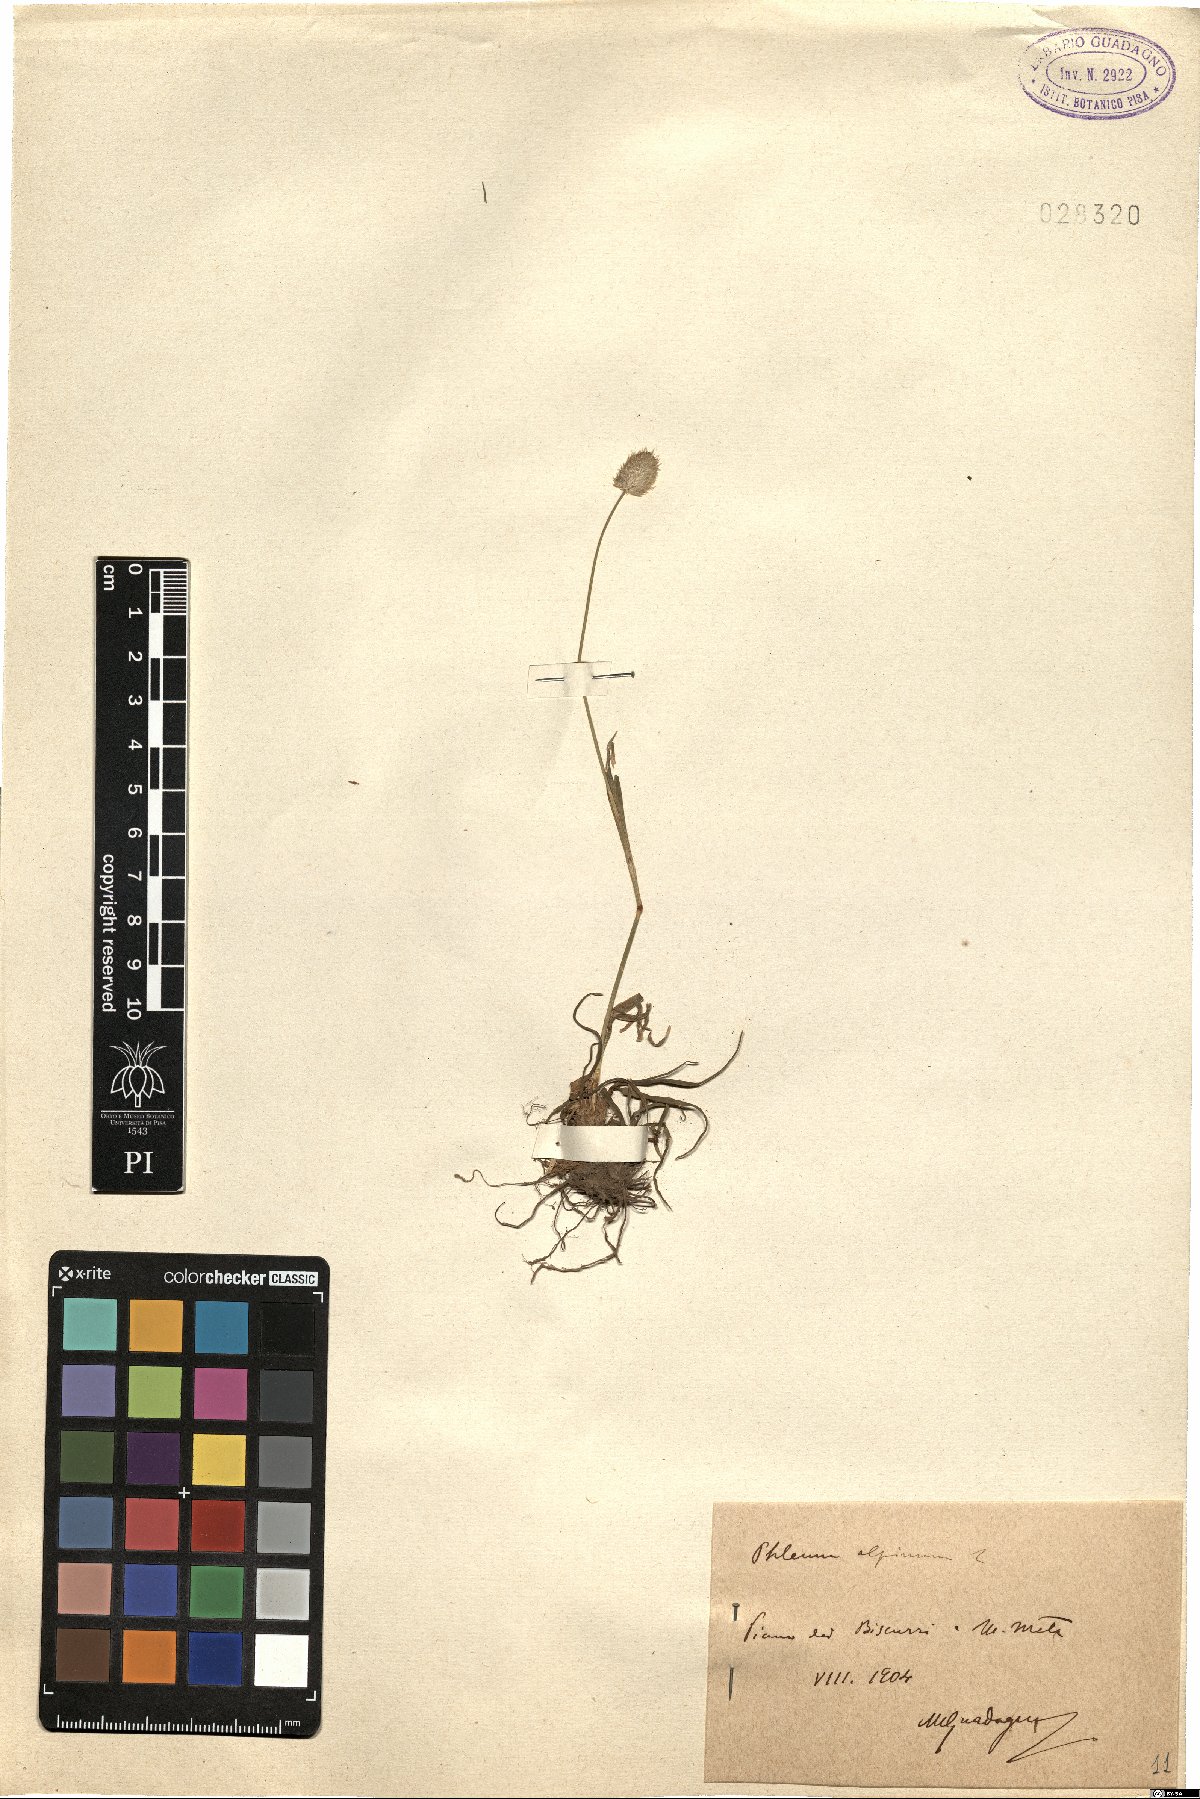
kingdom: Plantae
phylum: Tracheophyta
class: Liliopsida
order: Poales
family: Poaceae
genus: Phleum
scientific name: Phleum alpinum
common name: Alpine cat's-tail
